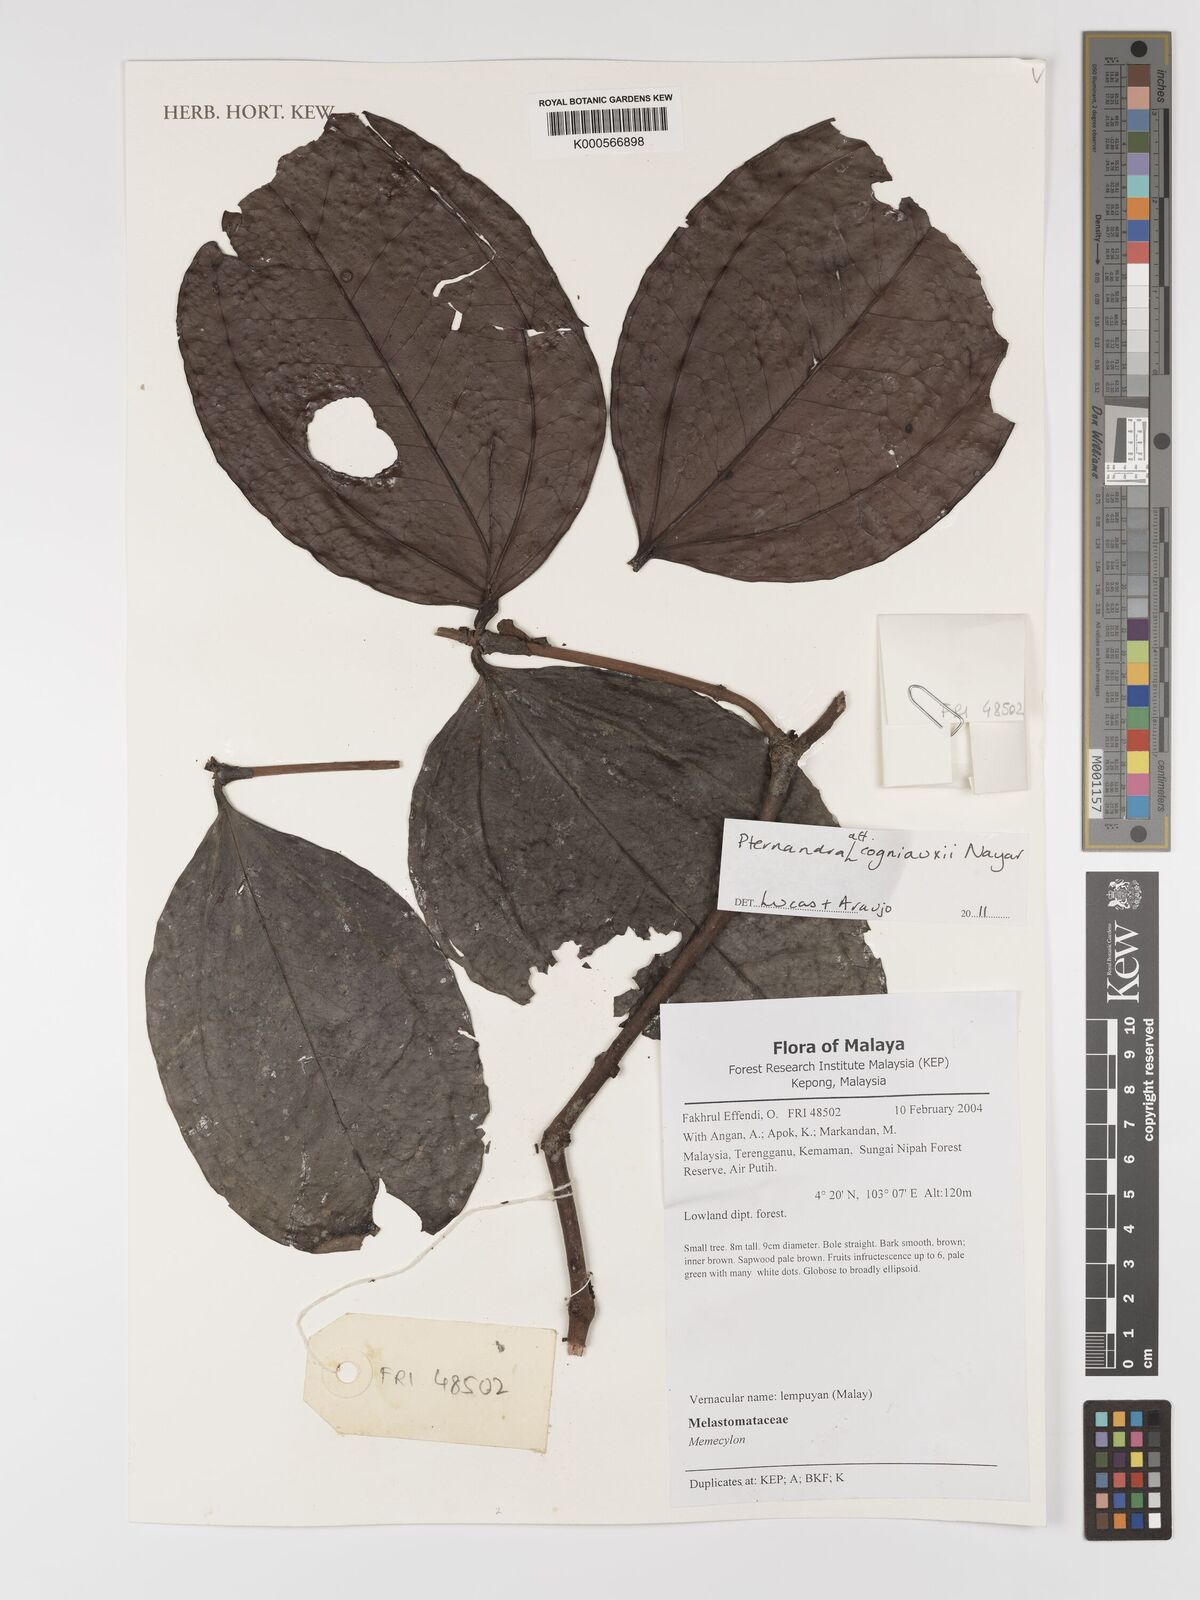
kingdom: Plantae
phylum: Tracheophyta
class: Magnoliopsida
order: Myrtales
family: Melastomataceae
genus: Pternandra
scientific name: Pternandra cogniauxii
